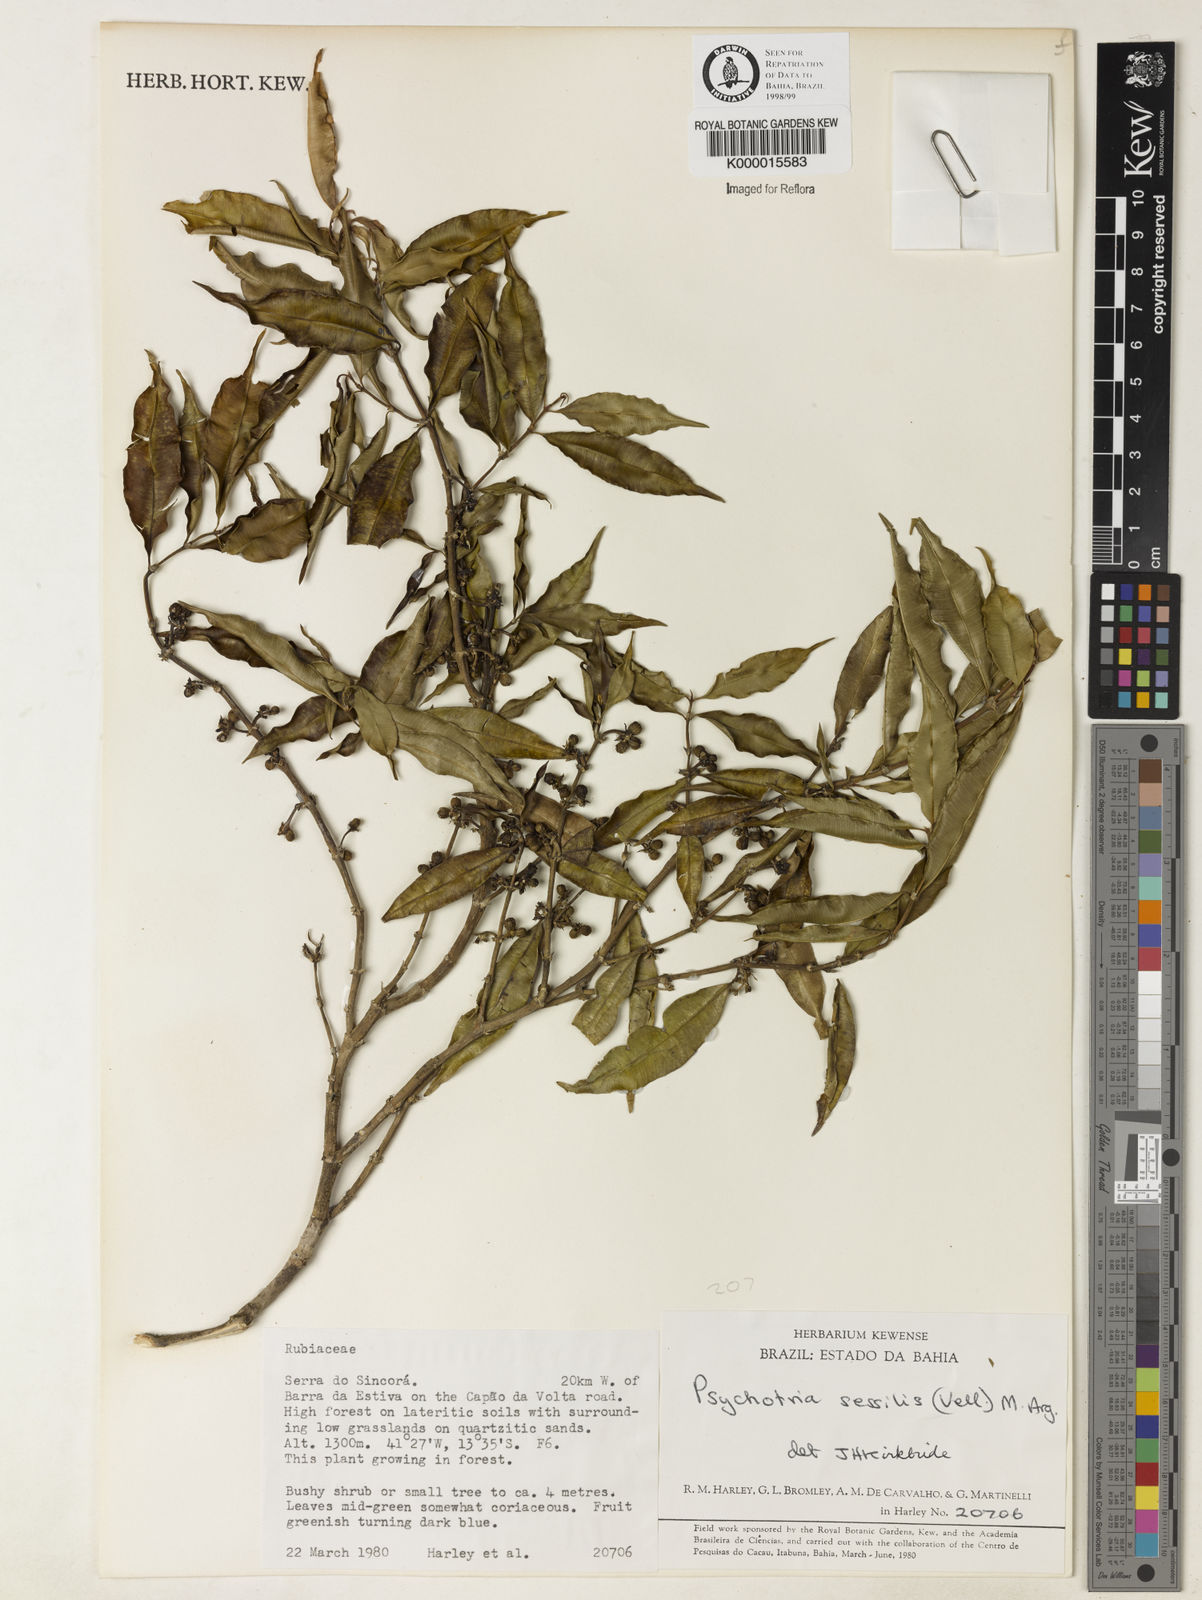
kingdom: Plantae
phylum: Tracheophyta
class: Magnoliopsida
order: Gentianales
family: Rubiaceae
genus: Psychotria
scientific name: Psychotria
